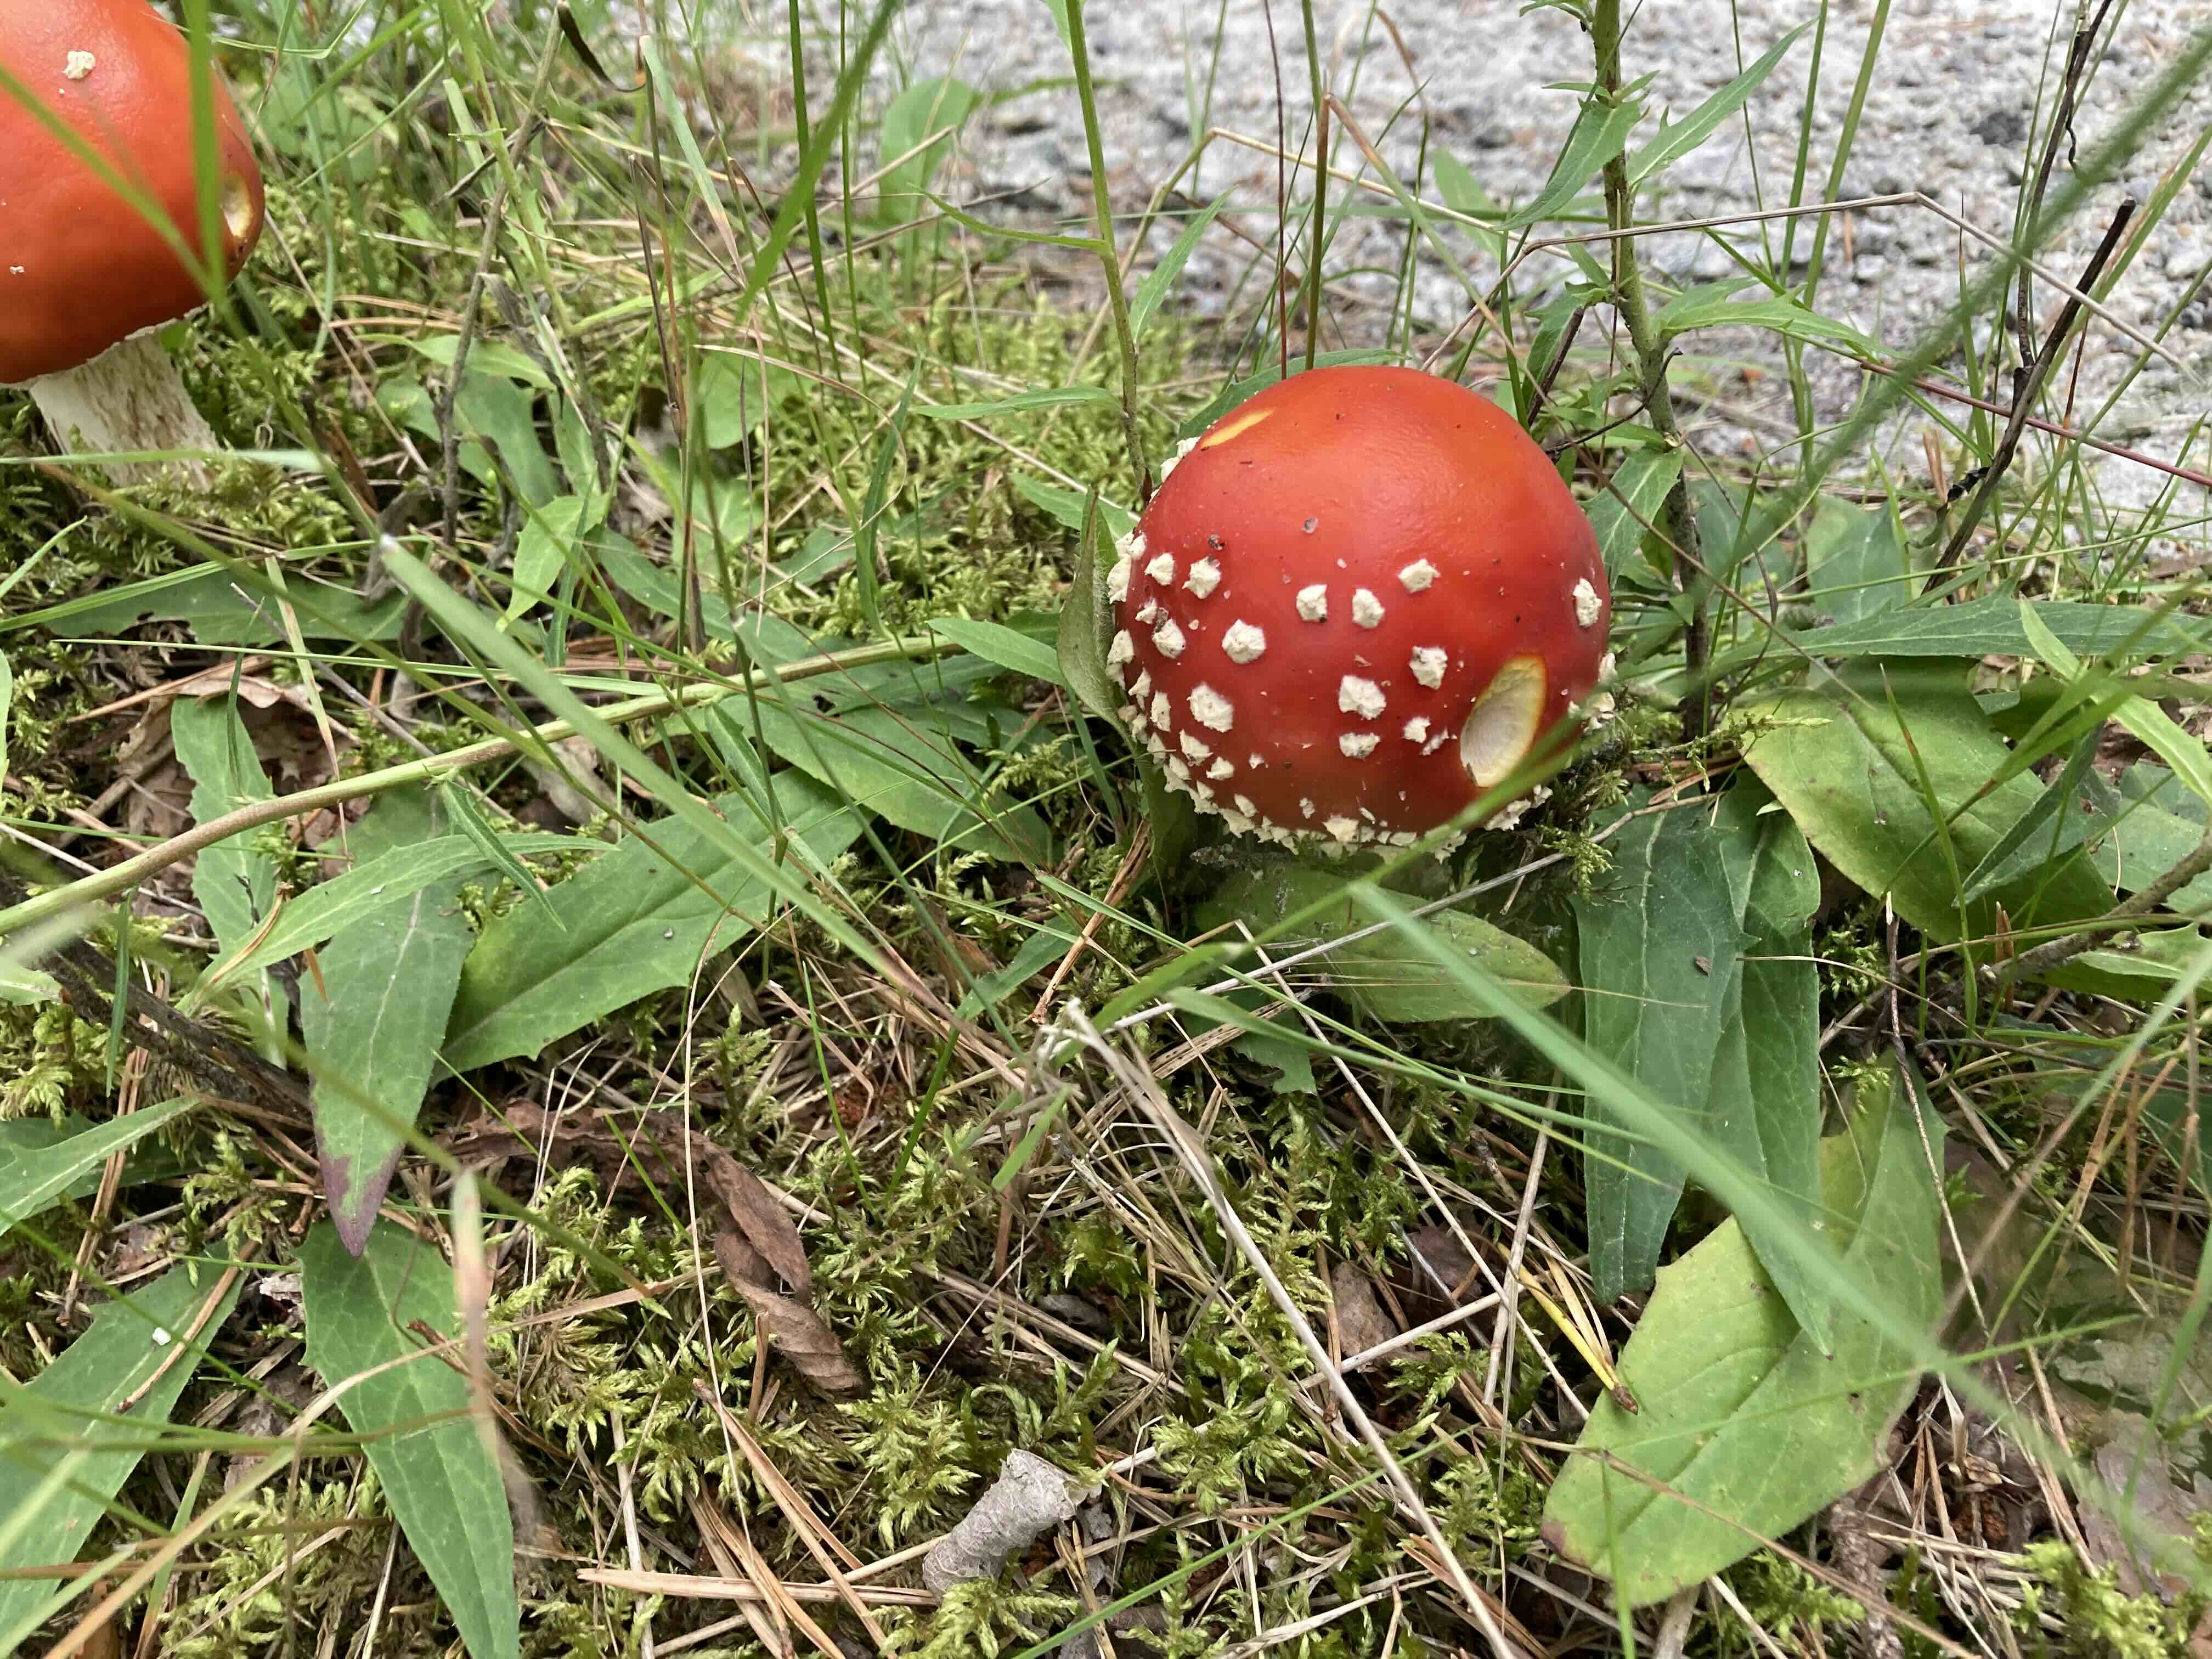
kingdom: Fungi
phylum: Basidiomycota
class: Agaricomycetes
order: Agaricales
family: Amanitaceae
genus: Amanita
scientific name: Amanita muscaria
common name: rød fluesvamp
